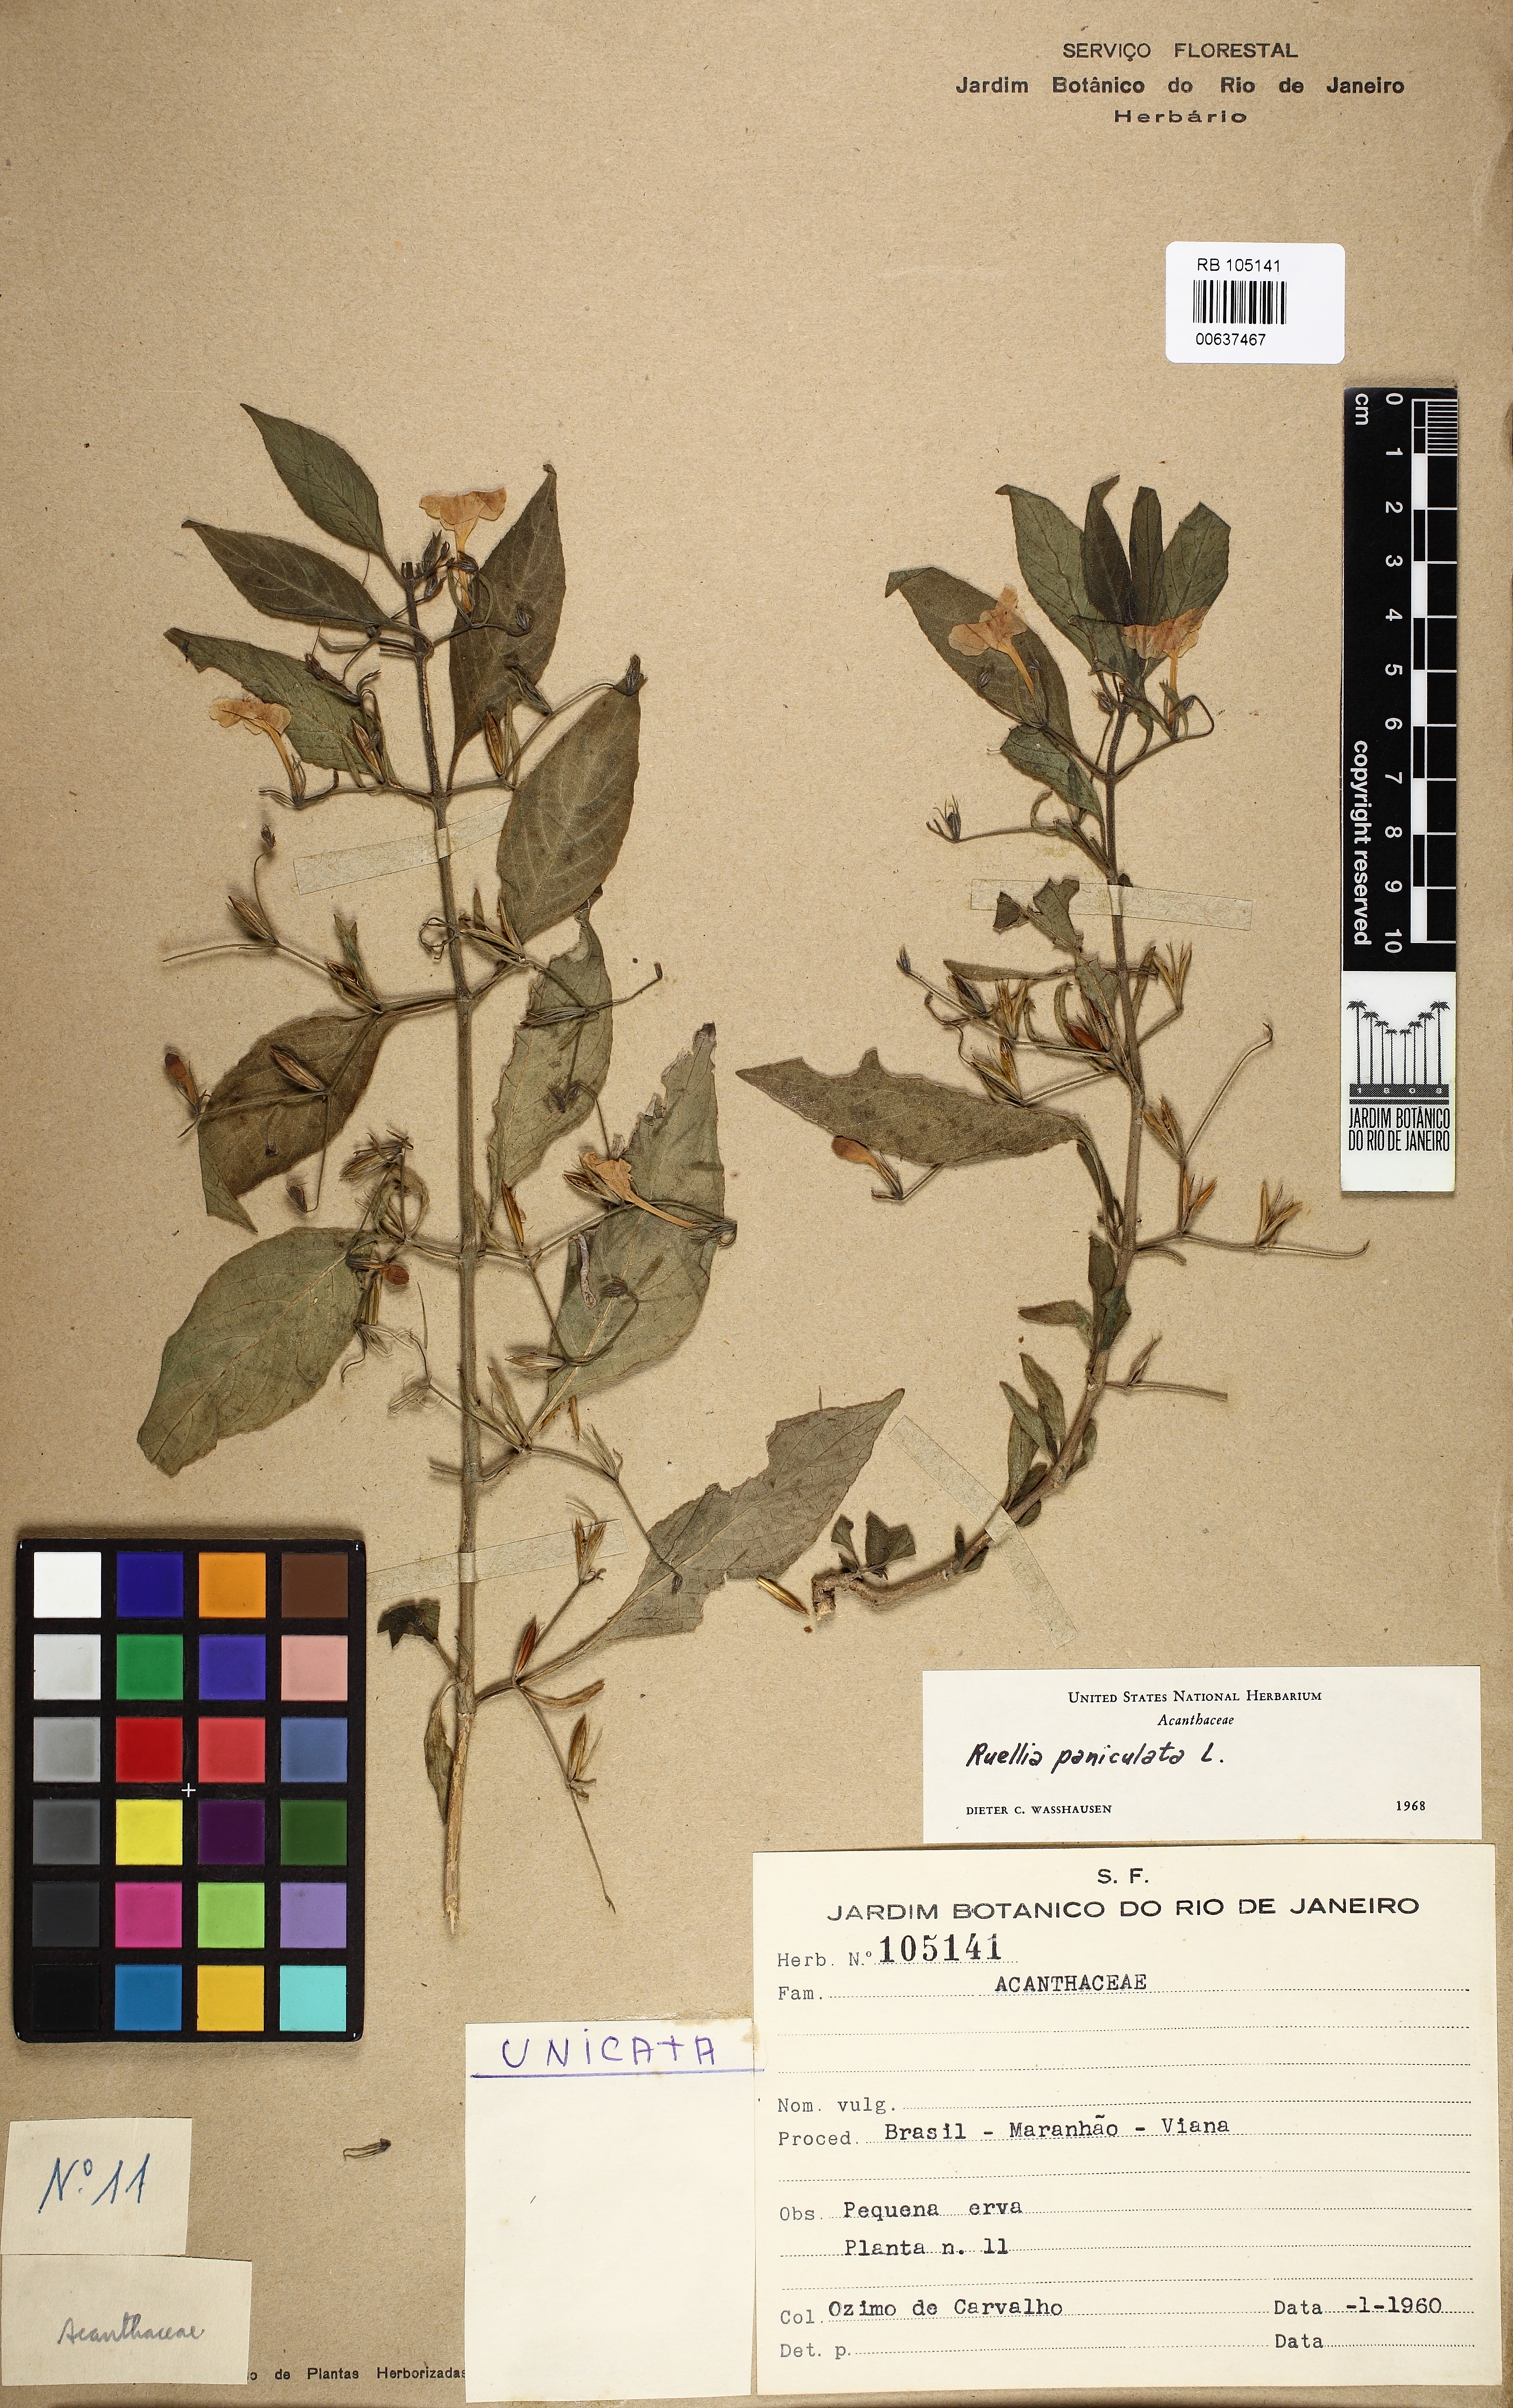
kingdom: Plantae
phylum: Tracheophyta
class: Magnoliopsida
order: Lamiales
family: Acanthaceae
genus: Ruellia
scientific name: Ruellia paniculata
